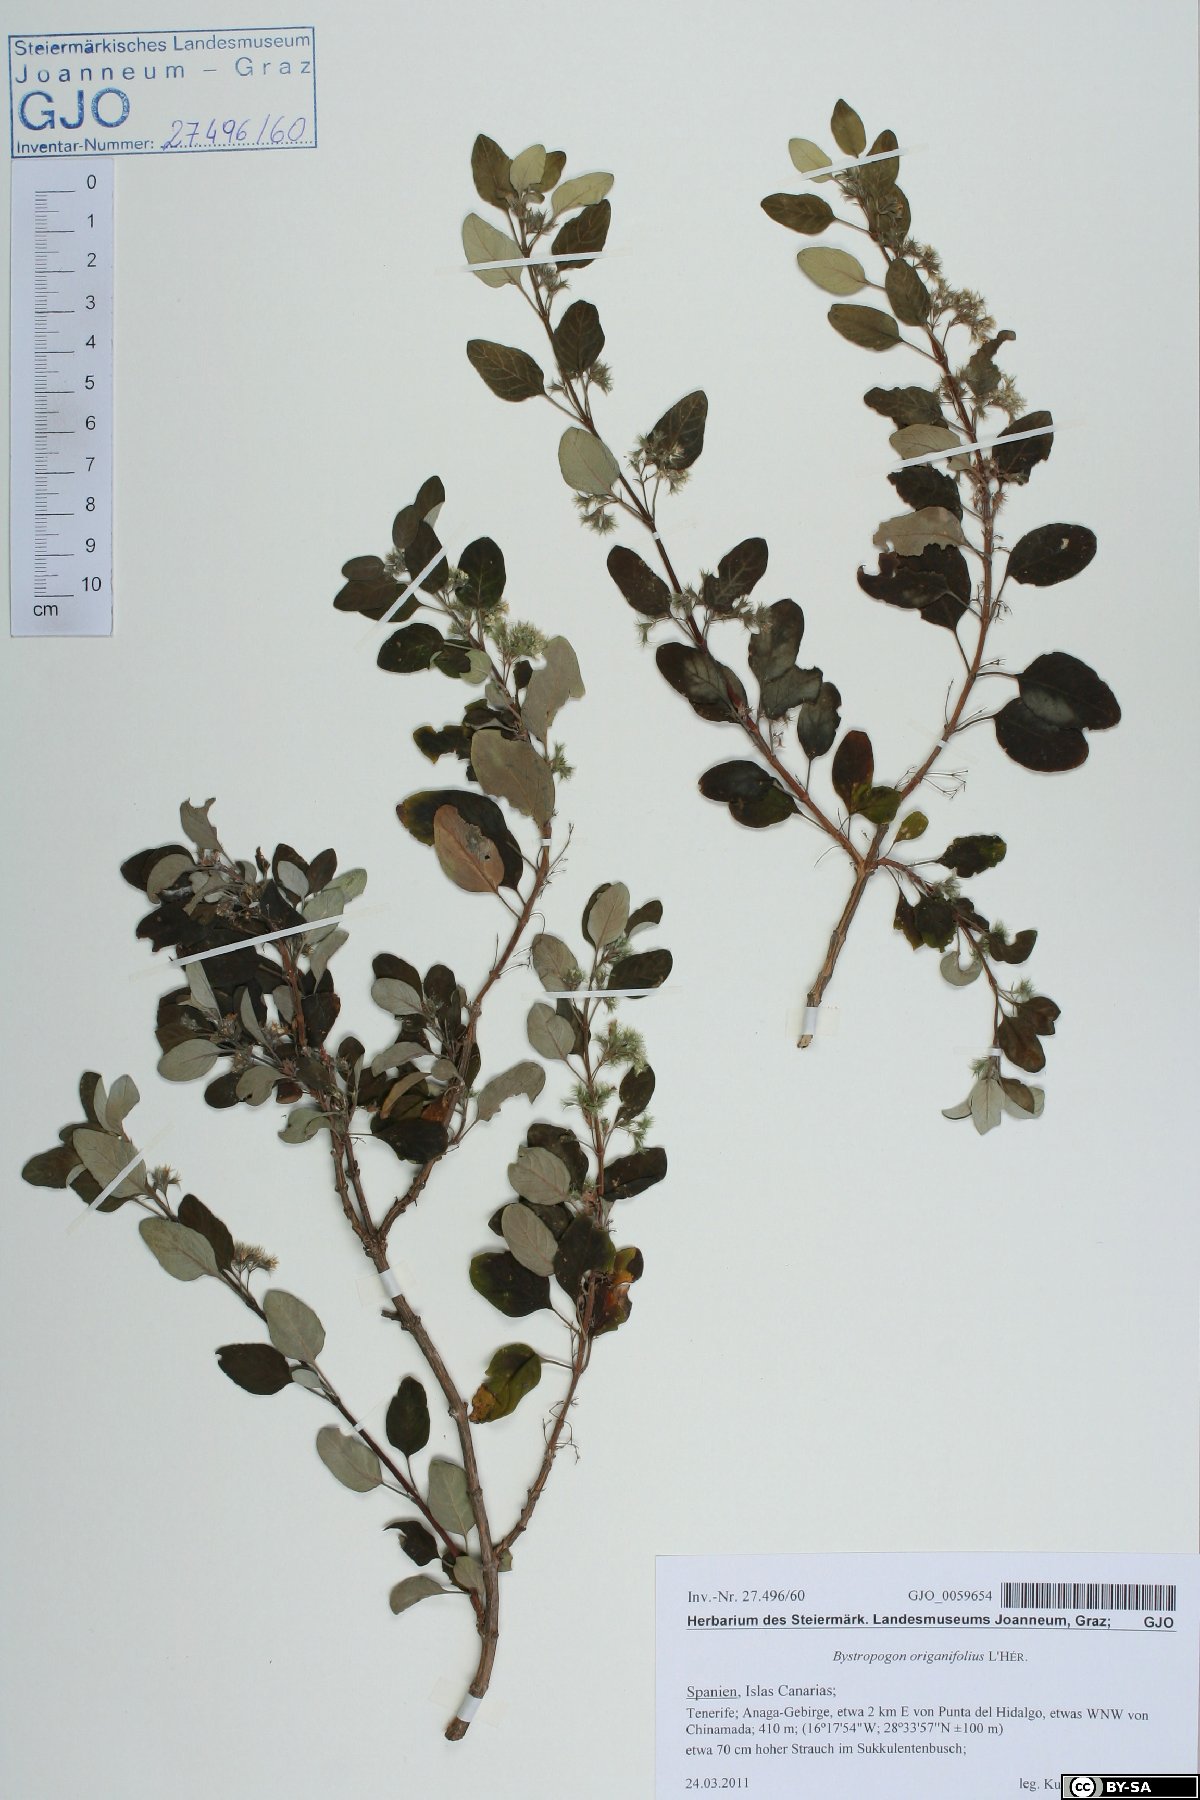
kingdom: Plantae
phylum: Tracheophyta
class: Magnoliopsida
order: Lamiales
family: Lamiaceae
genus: Bystropogon
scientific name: Bystropogon origanifolius
